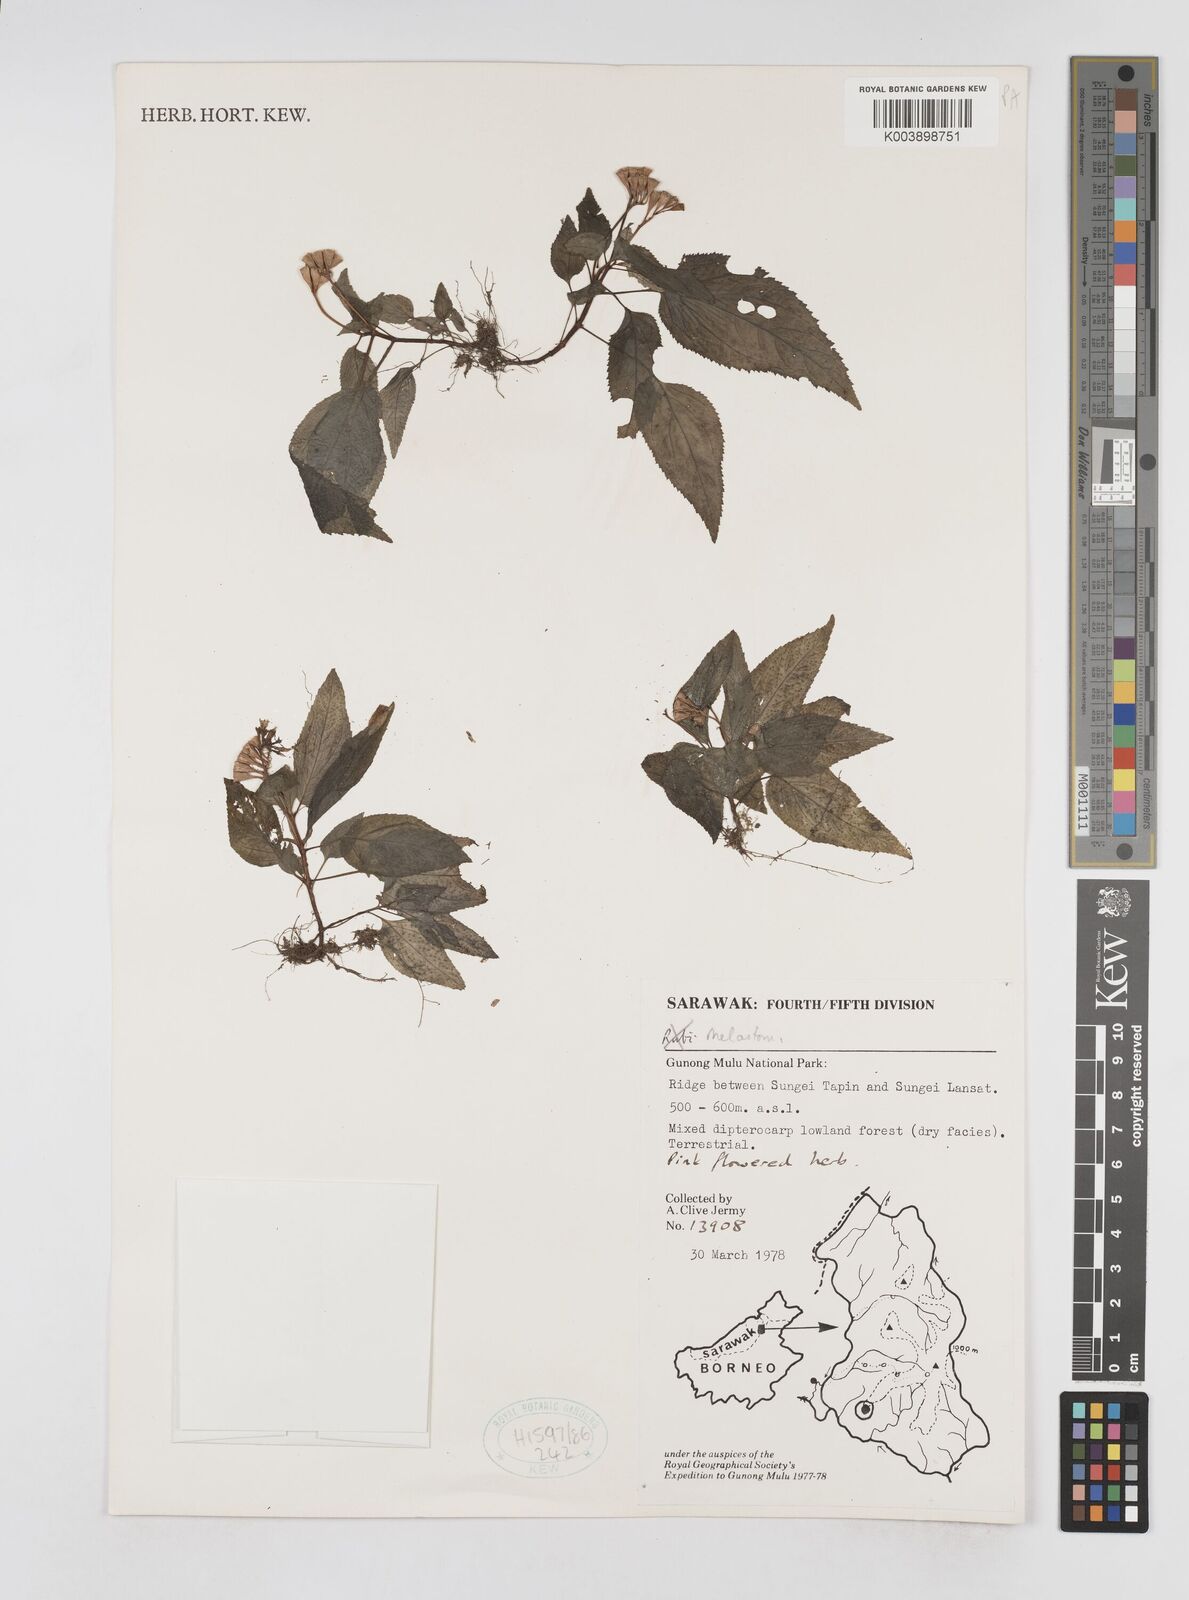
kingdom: Plantae
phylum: Tracheophyta
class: Magnoliopsida
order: Myrtales
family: Melastomataceae
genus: Sonerila
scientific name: Sonerila
